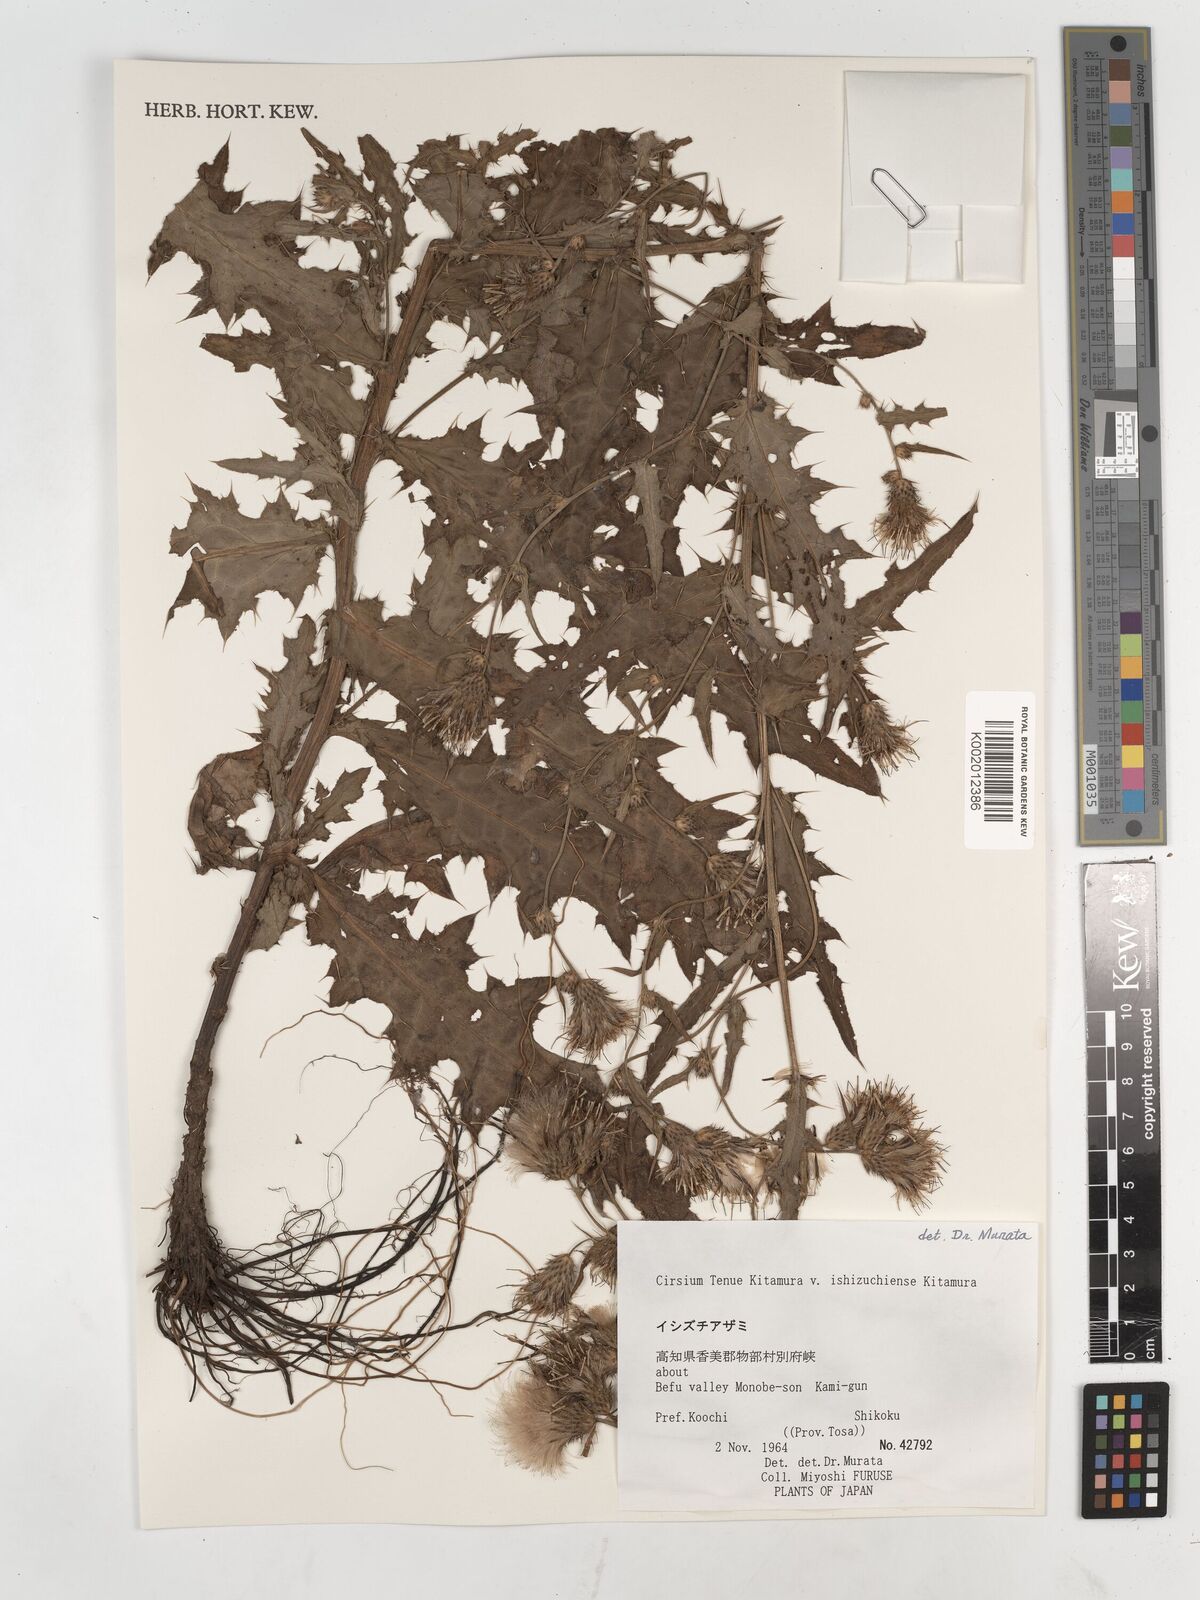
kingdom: Plantae
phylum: Tracheophyta
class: Magnoliopsida
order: Asterales
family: Asteraceae
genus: Cirsium
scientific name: Cirsium ishizuchiense
